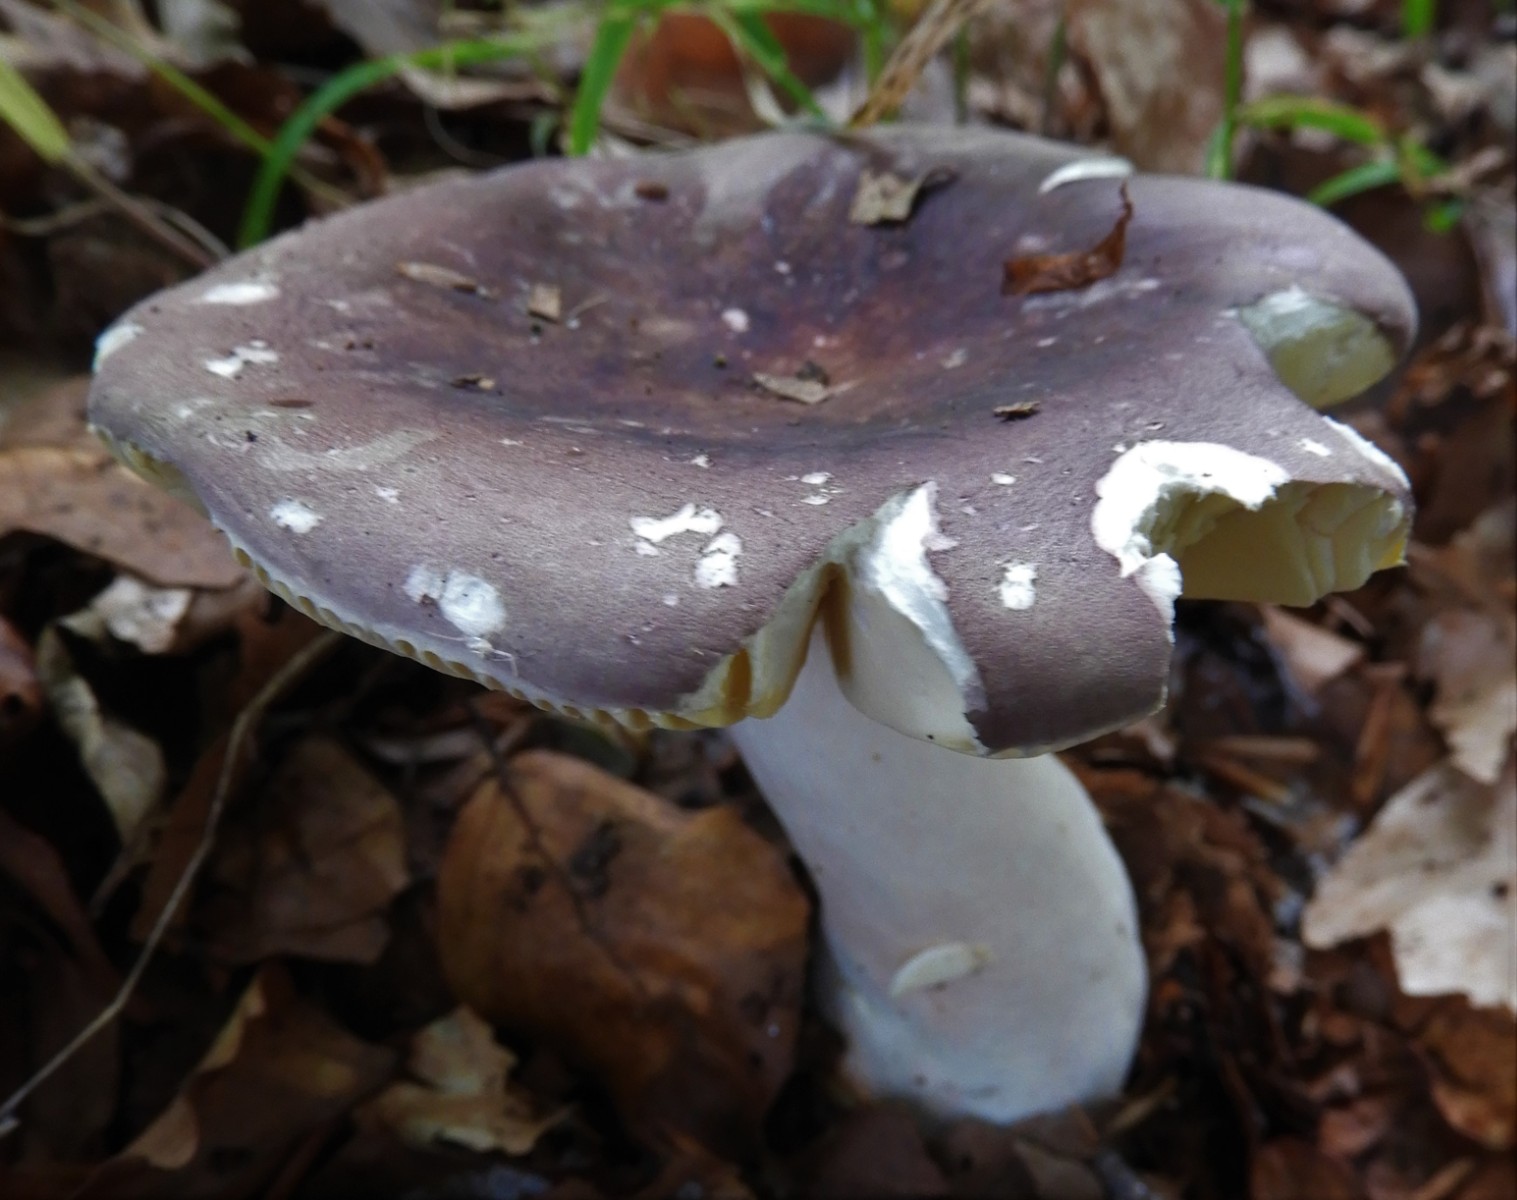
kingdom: Fungi
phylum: Basidiomycota
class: Agaricomycetes
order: Russulales
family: Russulaceae
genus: Russula
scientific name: Russula olivacea
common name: stor skørhat
